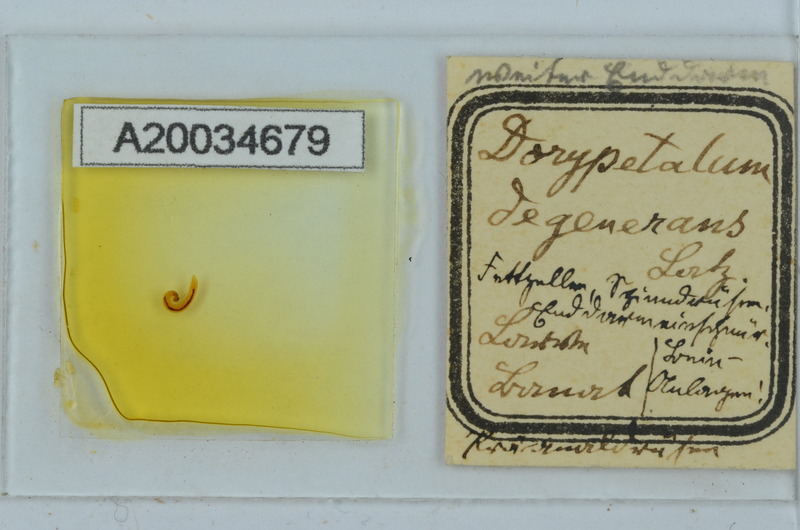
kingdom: Animalia
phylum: Arthropoda
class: Diplopoda
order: Callipodida
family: Dorypetalidae
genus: Dorypetalum
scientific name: Dorypetalum degenerans
